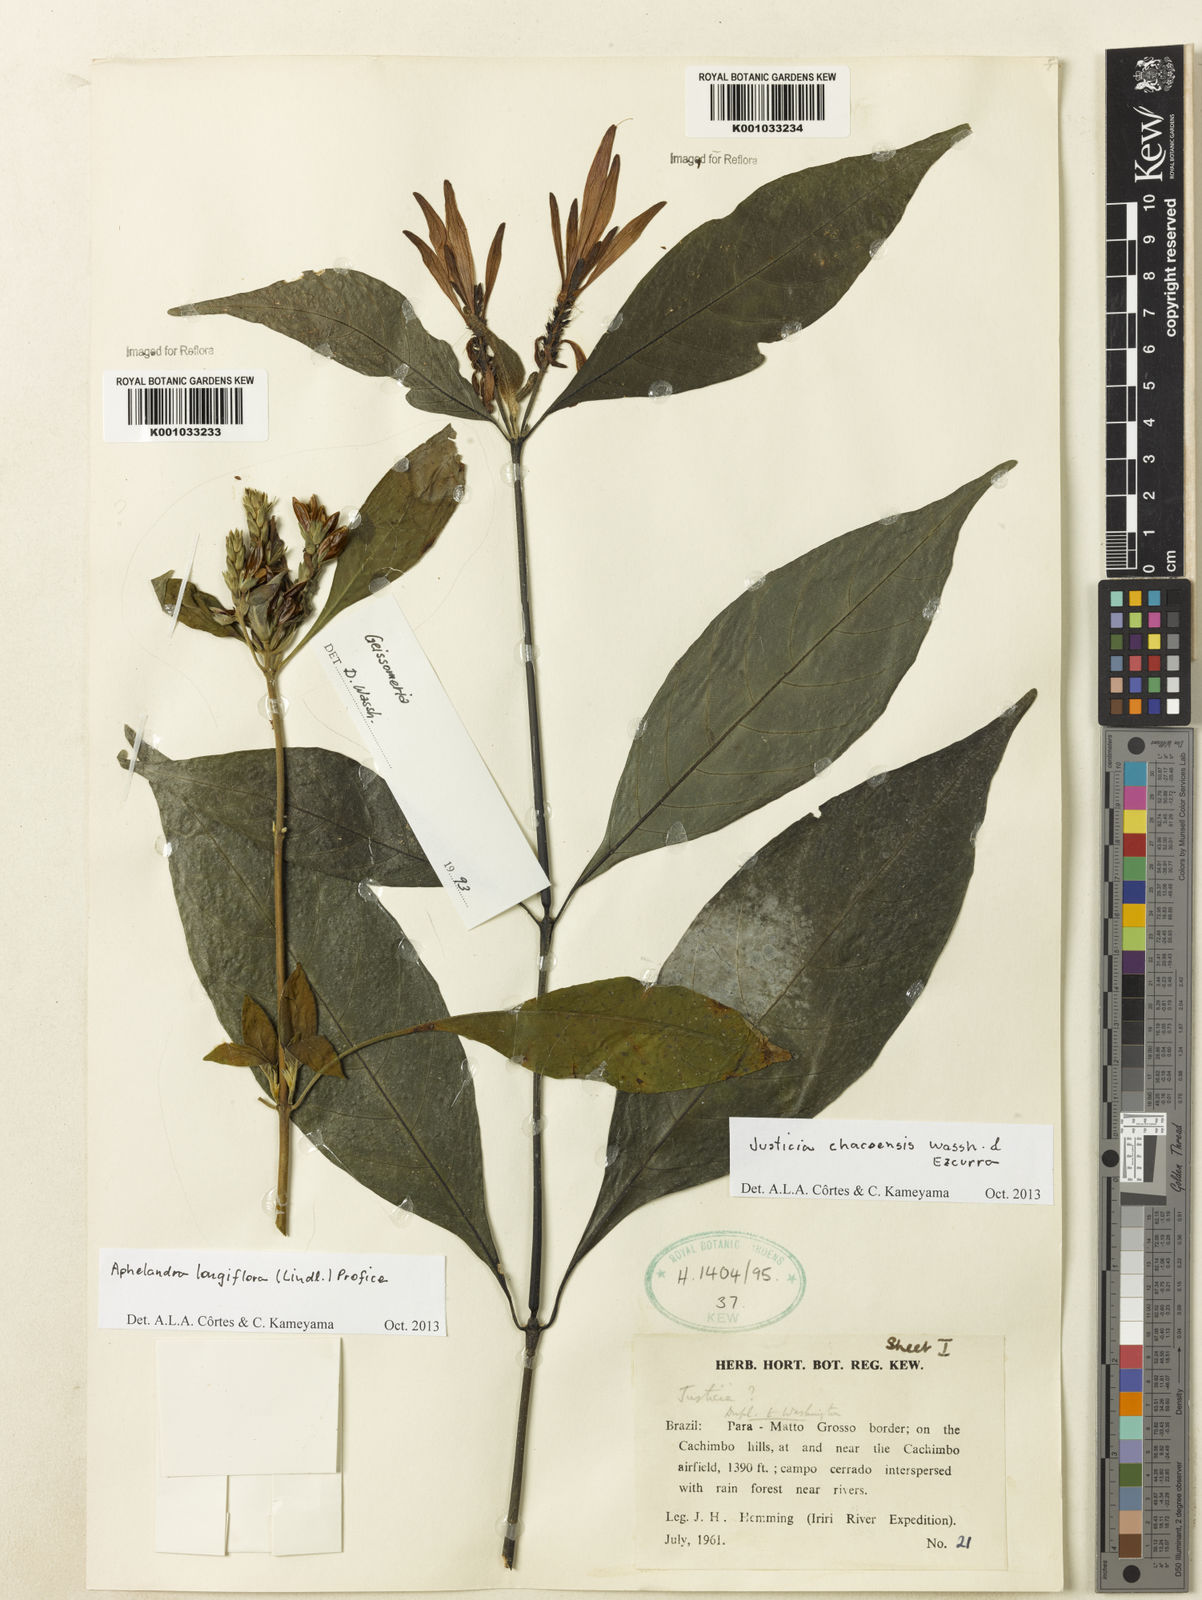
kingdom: Plantae
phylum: Tracheophyta
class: Magnoliopsida
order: Lamiales
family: Acanthaceae
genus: Justicia
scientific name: Justicia chacoensis
